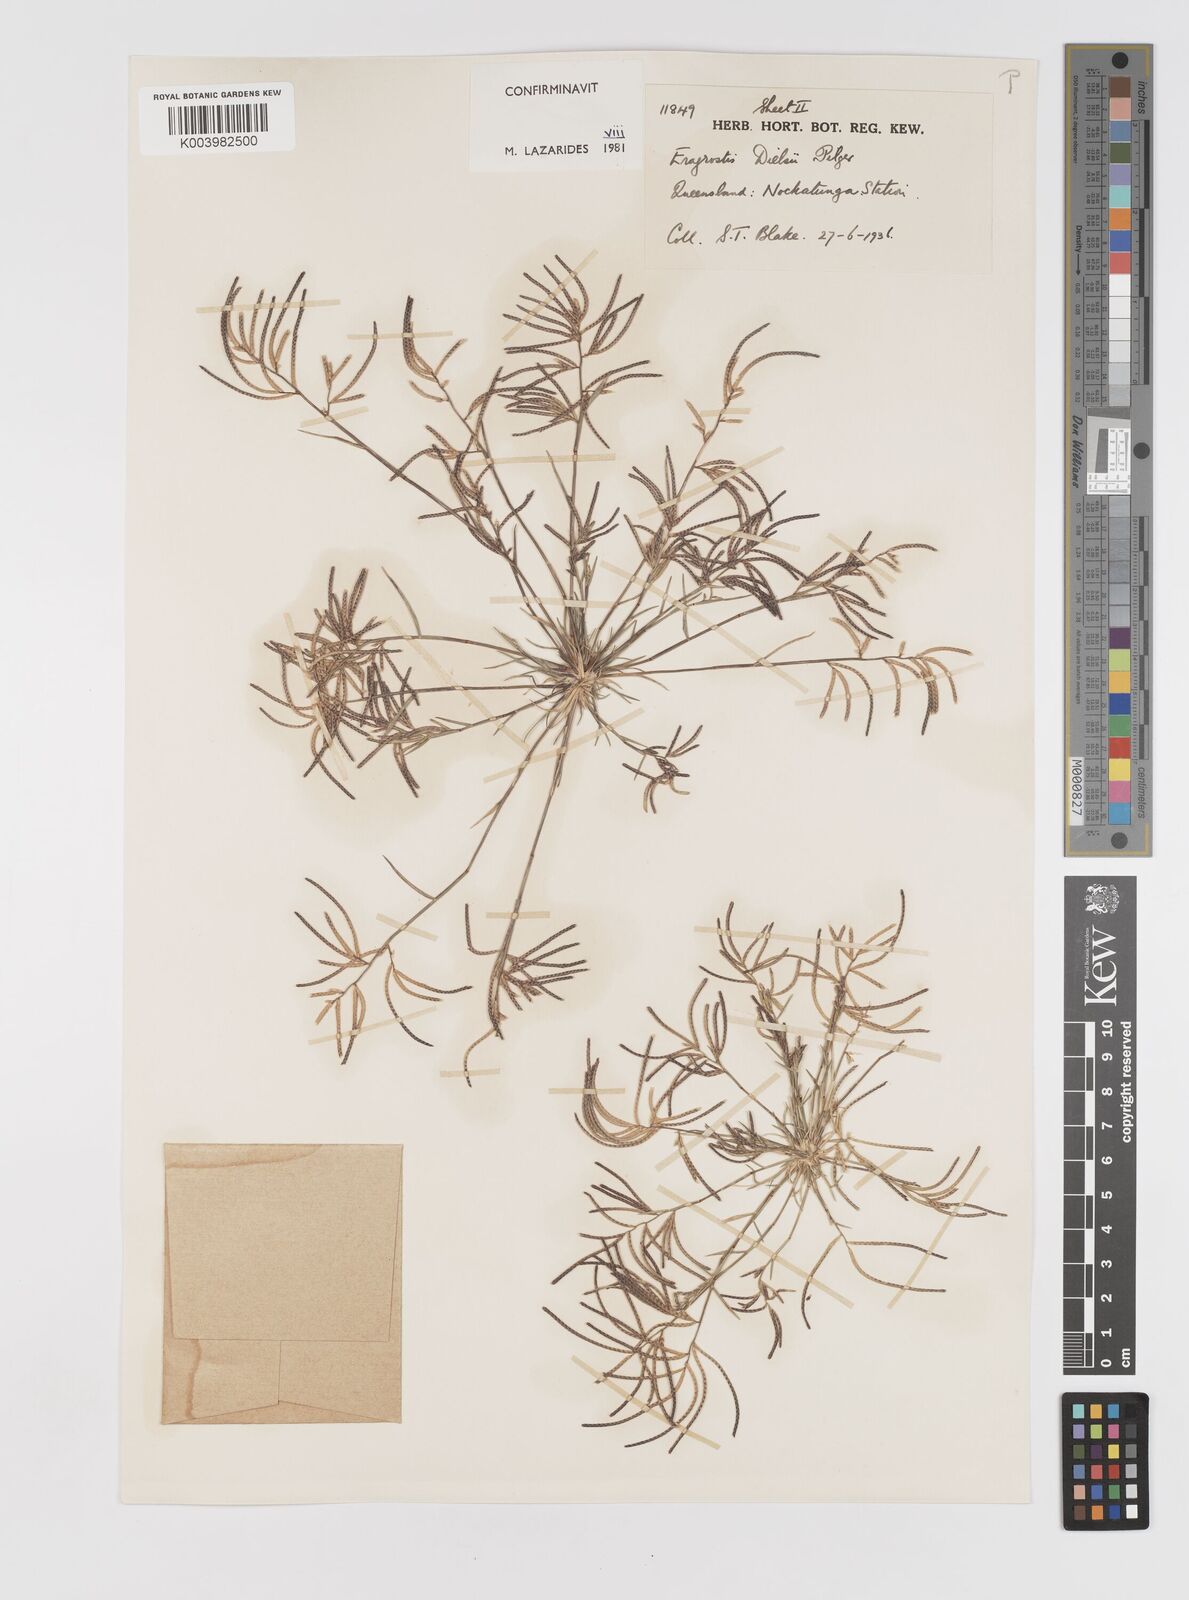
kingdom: Plantae
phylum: Tracheophyta
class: Liliopsida
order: Poales
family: Poaceae
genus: Eragrostis
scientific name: Eragrostis dielsii
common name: Lovegrass
